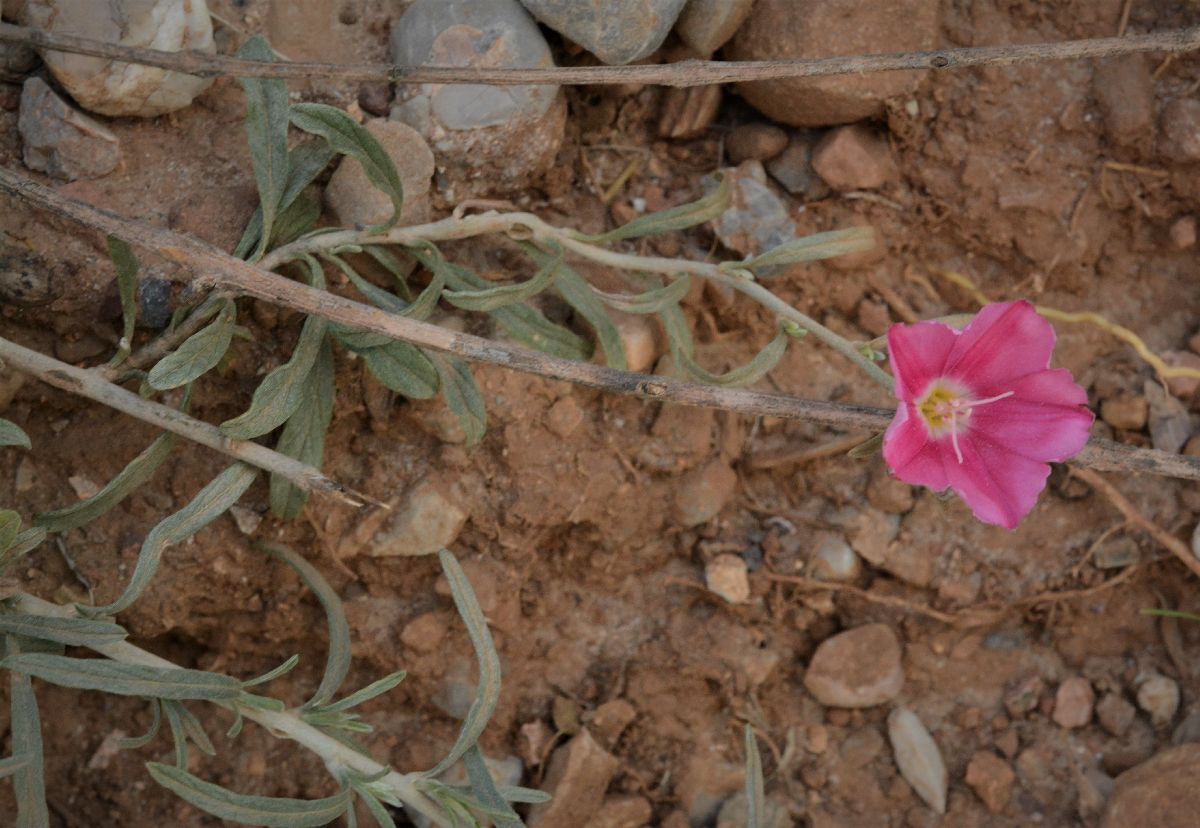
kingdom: Plantae
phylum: Tracheophyta
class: Magnoliopsida
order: Solanales
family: Convolvulaceae
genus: Convolvulus
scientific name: Convolvulus oleifolius
